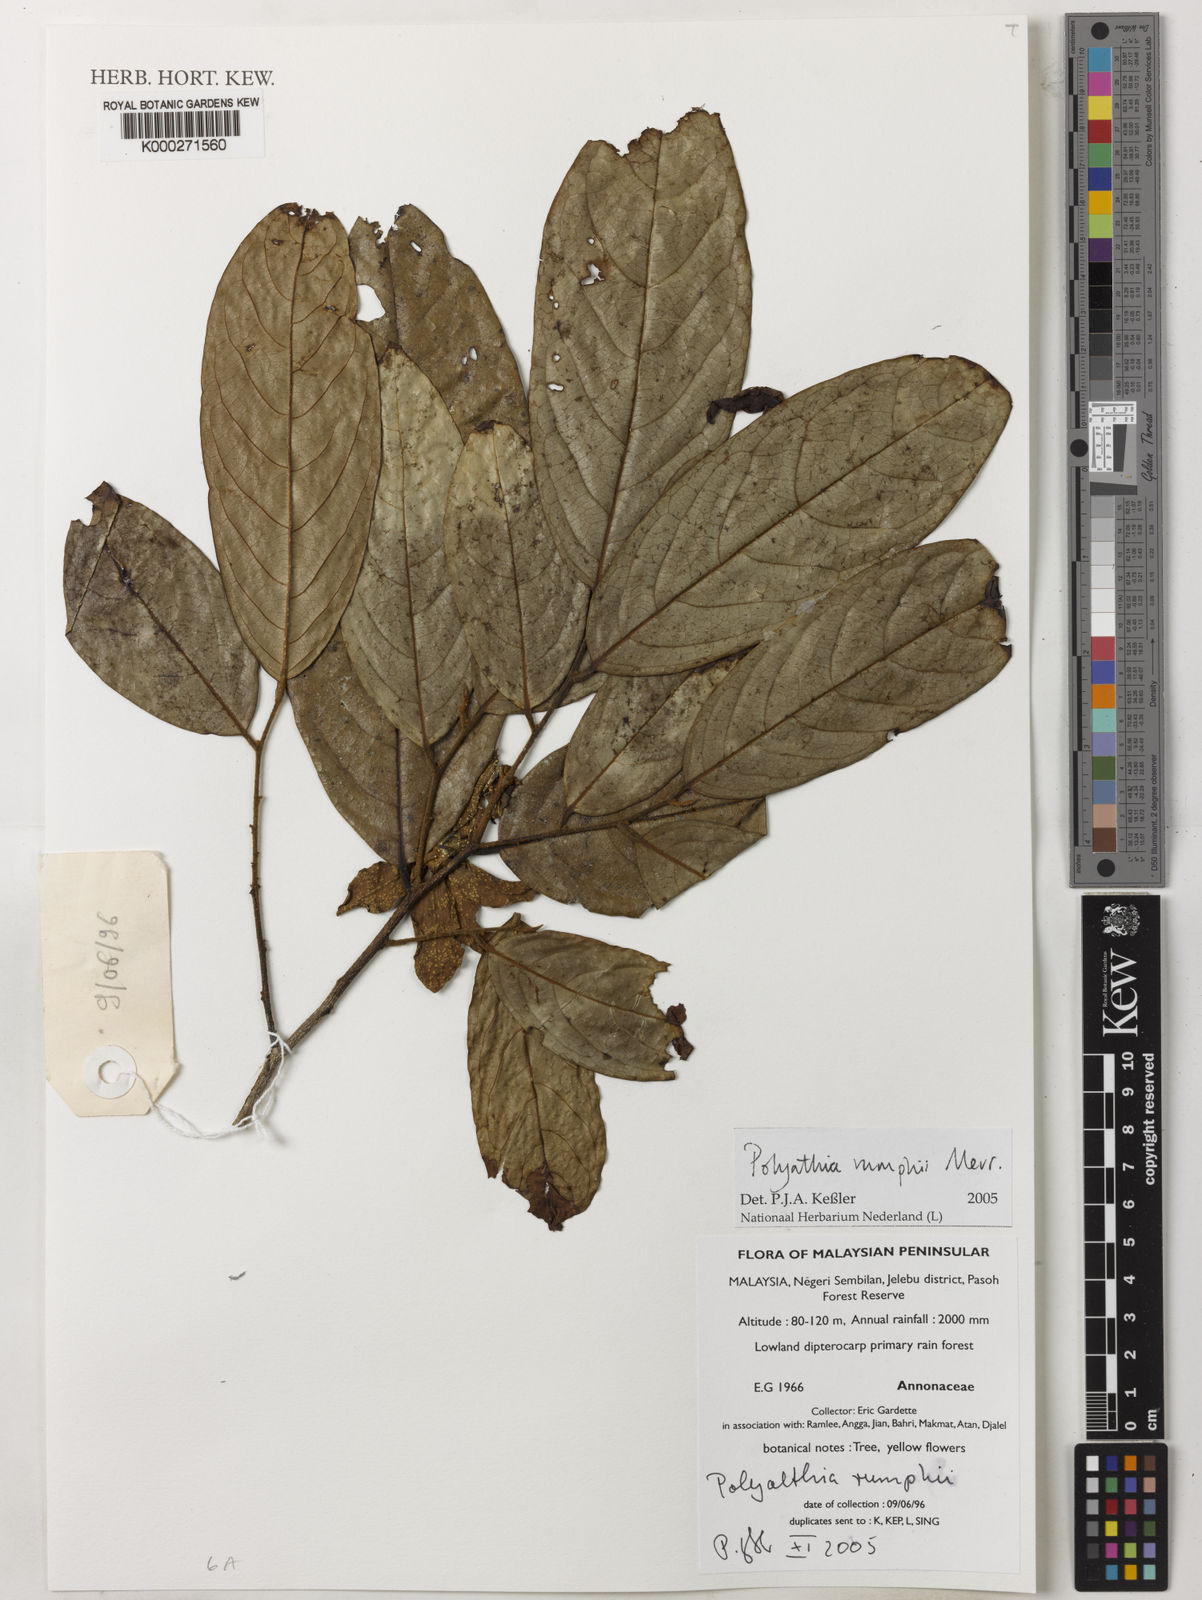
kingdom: Plantae
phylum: Tracheophyta
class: Magnoliopsida
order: Magnoliales
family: Annonaceae
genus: Hubera
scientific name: Hubera rumphii
